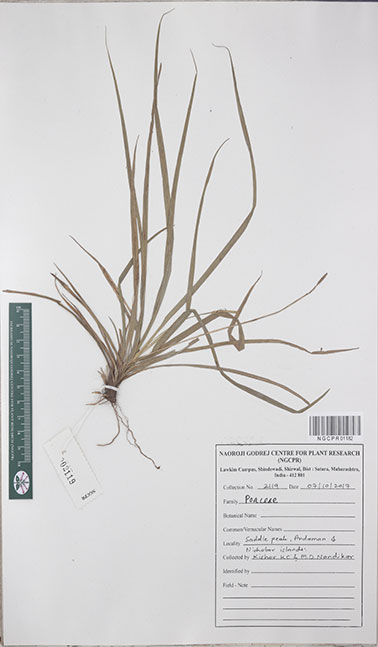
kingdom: Plantae
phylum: Tracheophyta
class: Liliopsida
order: Poales
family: Poaceae
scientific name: Poaceae
